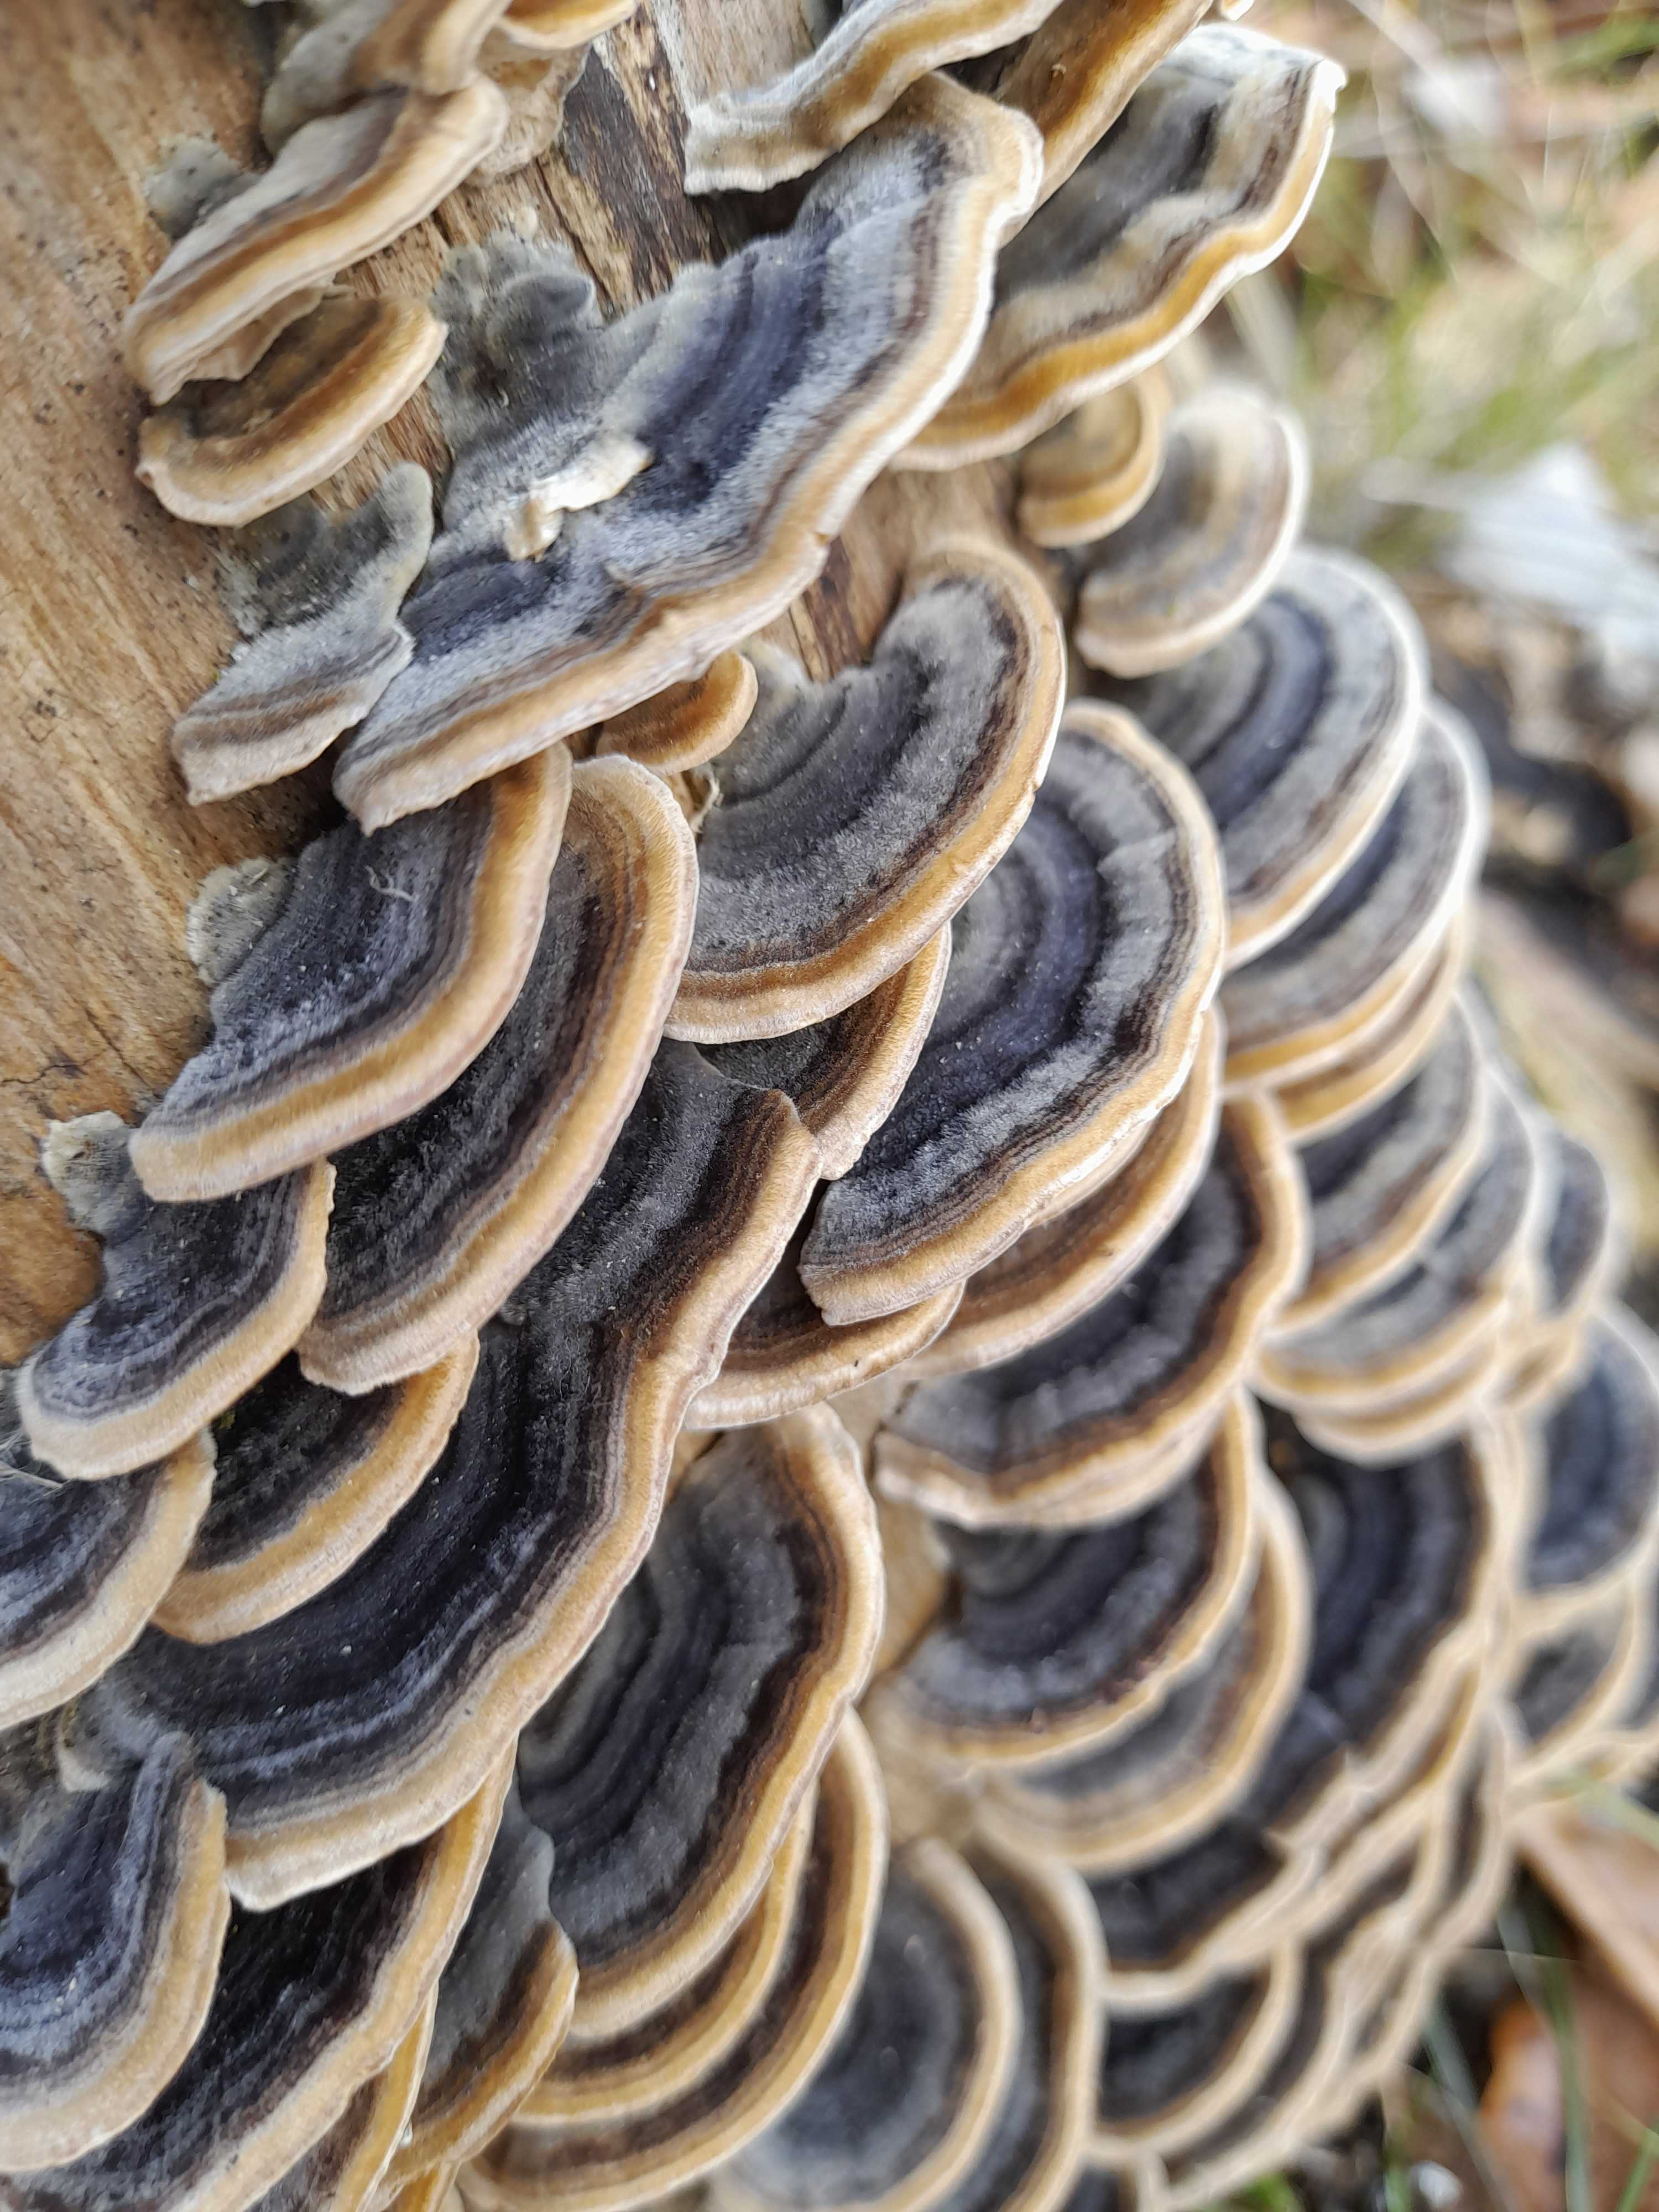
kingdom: Fungi
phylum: Basidiomycota
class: Agaricomycetes
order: Polyporales
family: Polyporaceae
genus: Trametes
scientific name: Trametes versicolor
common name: broget læderporesvamp
